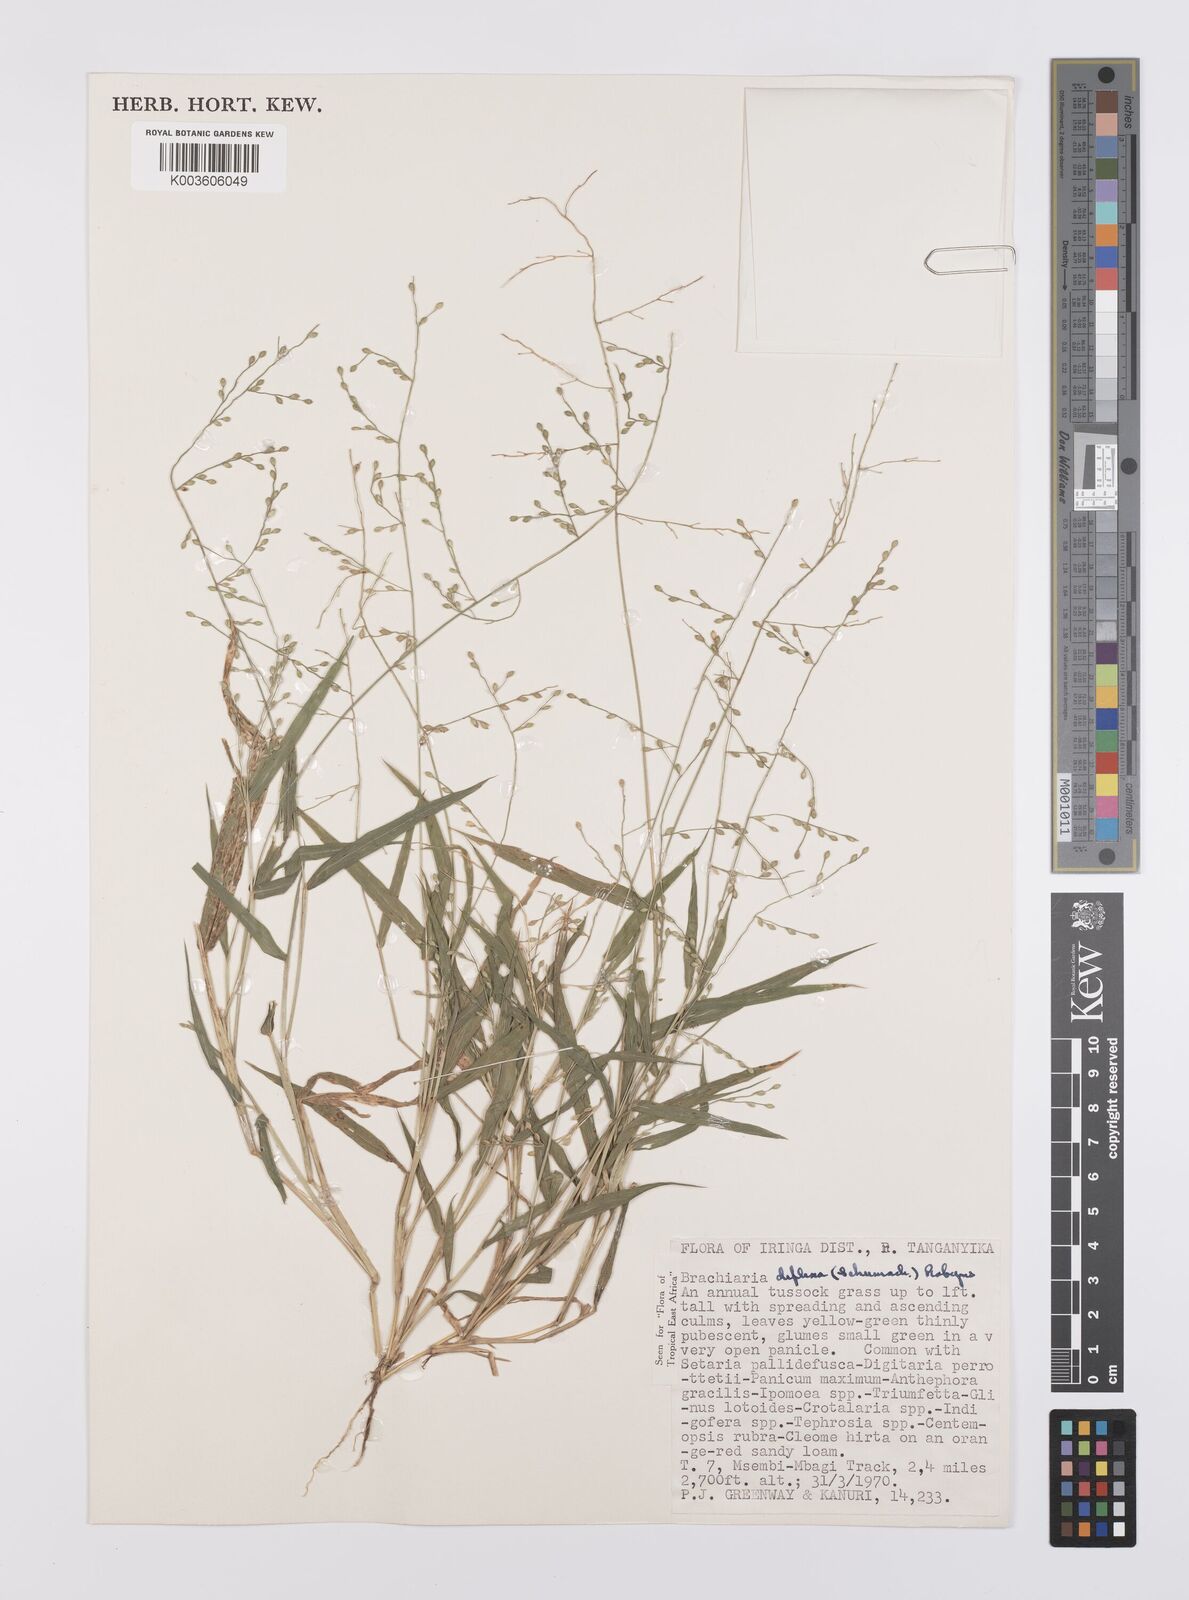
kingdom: Plantae
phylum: Tracheophyta
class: Liliopsida
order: Poales
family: Poaceae
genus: Urochloa
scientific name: Urochloa deflexa
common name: Guinea millet
